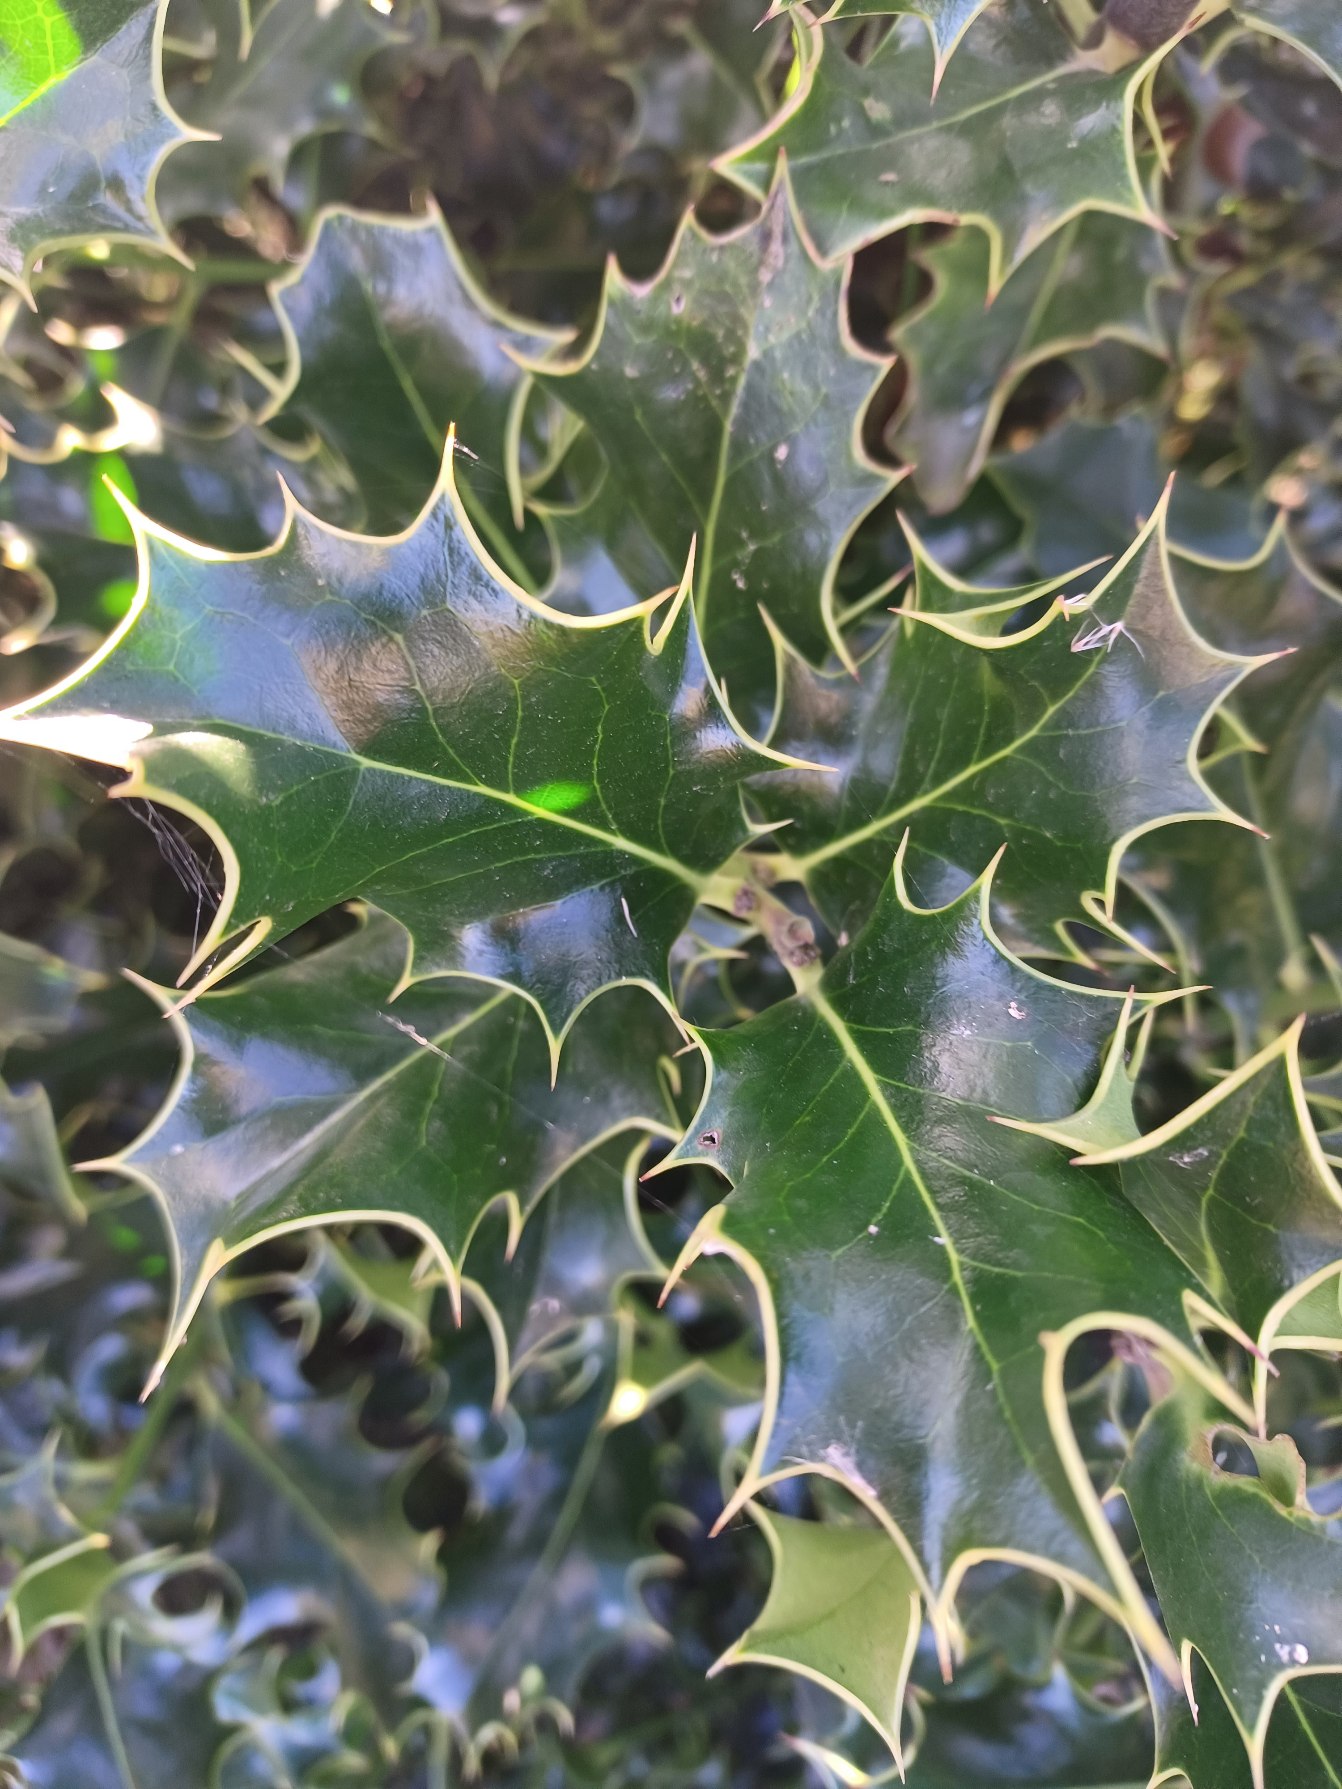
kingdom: Plantae
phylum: Tracheophyta
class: Magnoliopsida
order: Aquifoliales
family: Aquifoliaceae
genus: Ilex
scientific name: Ilex aquifolium
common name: Kristtorn
